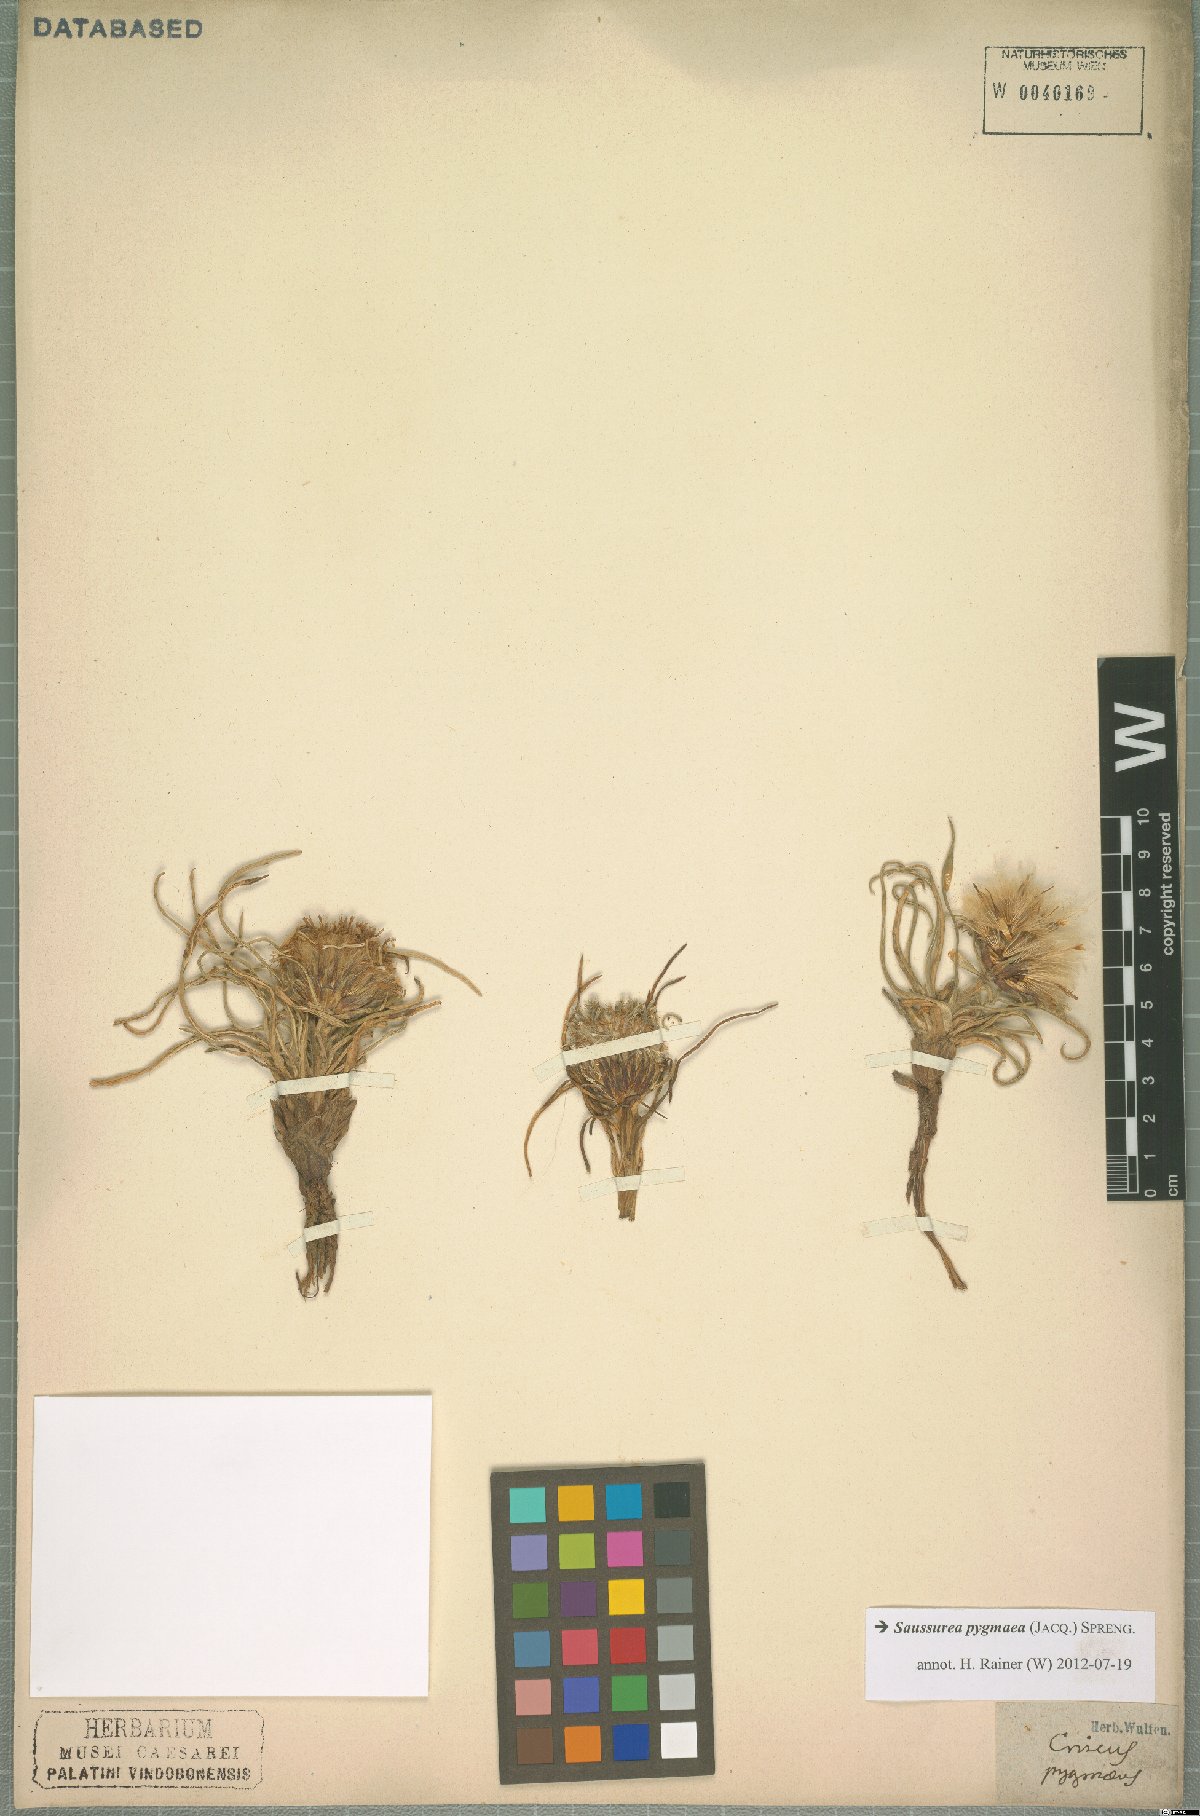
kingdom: Plantae
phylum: Tracheophyta
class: Magnoliopsida
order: Asterales
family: Asteraceae
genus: Saussurea
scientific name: Saussurea pygmaea
